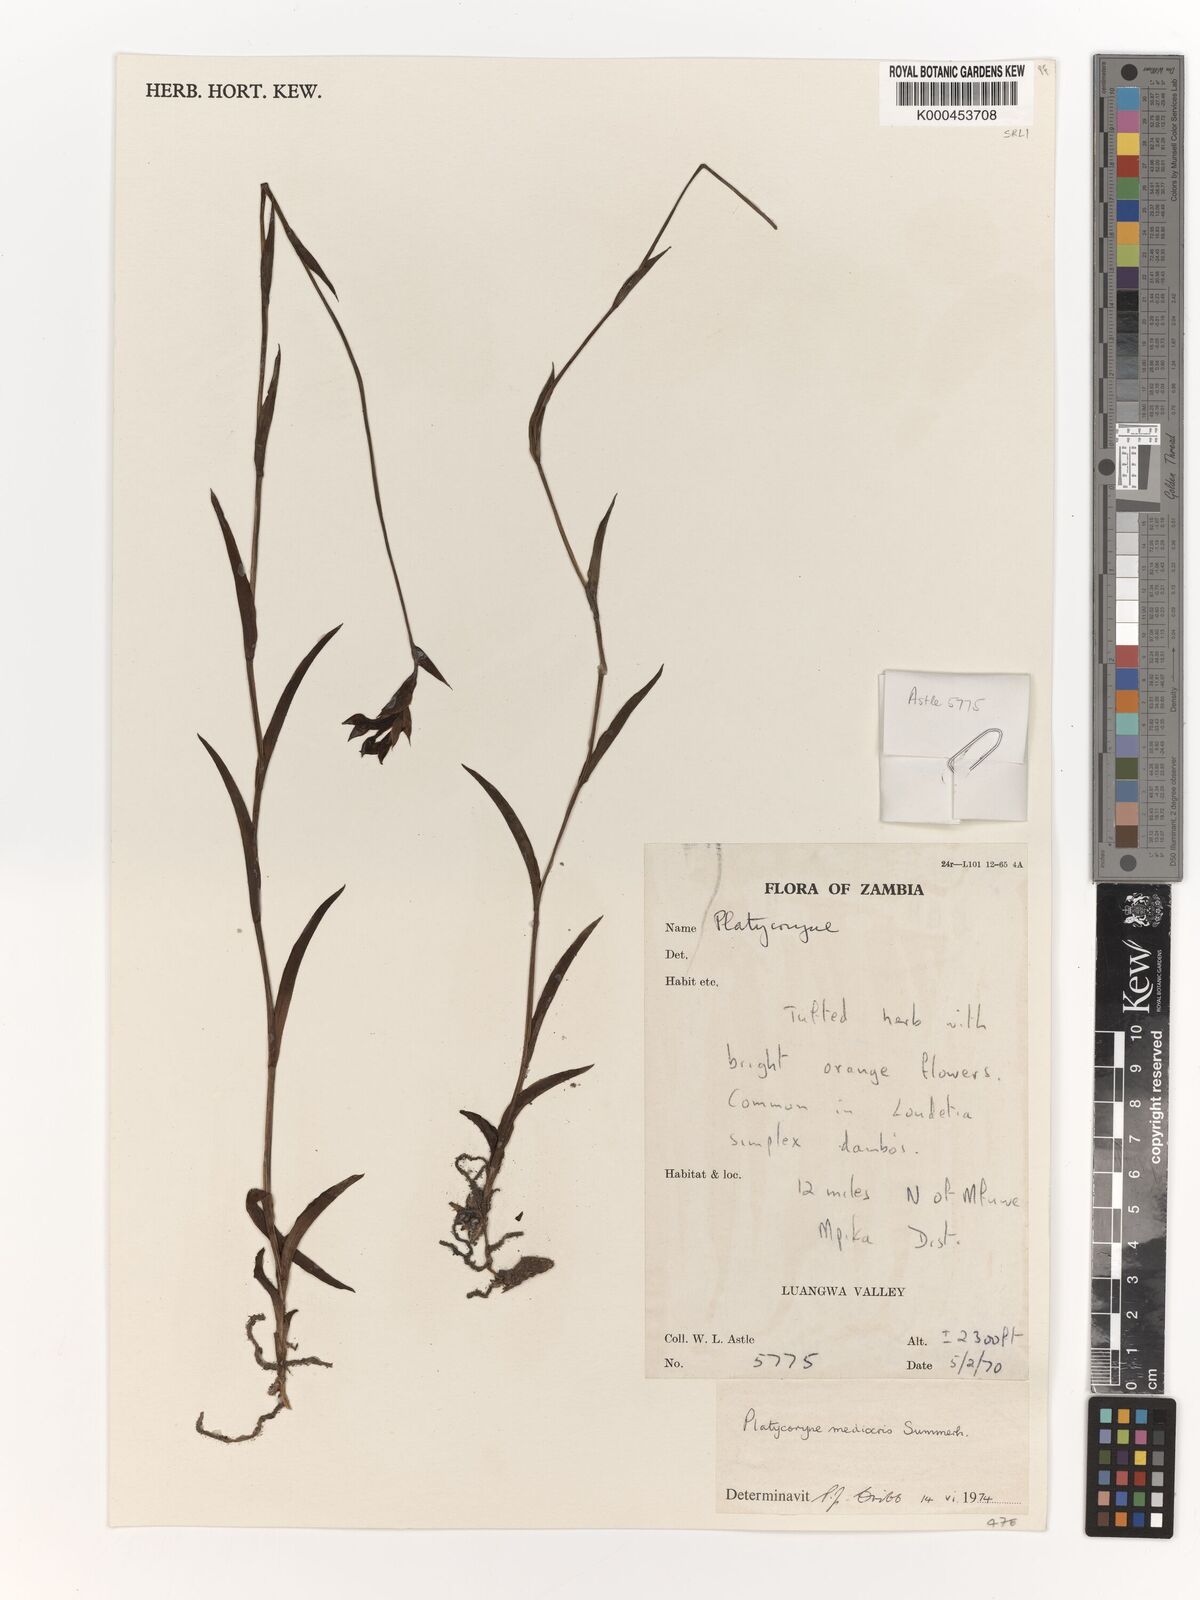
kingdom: Plantae
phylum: Tracheophyta
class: Liliopsida
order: Asparagales
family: Orchidaceae
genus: Platycoryne
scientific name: Platycoryne mediocris
